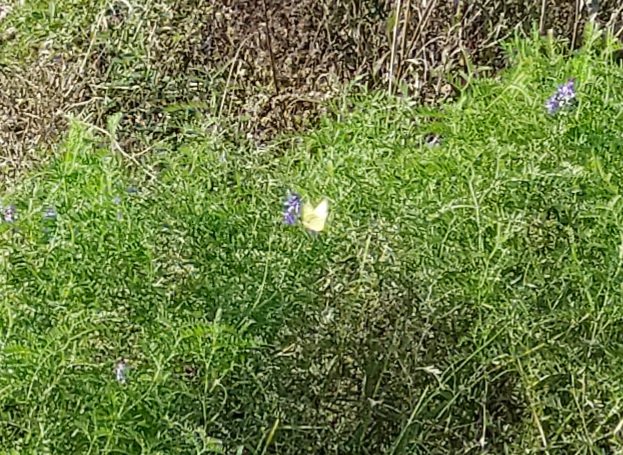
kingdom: Animalia
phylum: Arthropoda
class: Insecta
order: Lepidoptera
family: Pieridae
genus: Colias
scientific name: Colias philodice
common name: Clouded Sulphur
